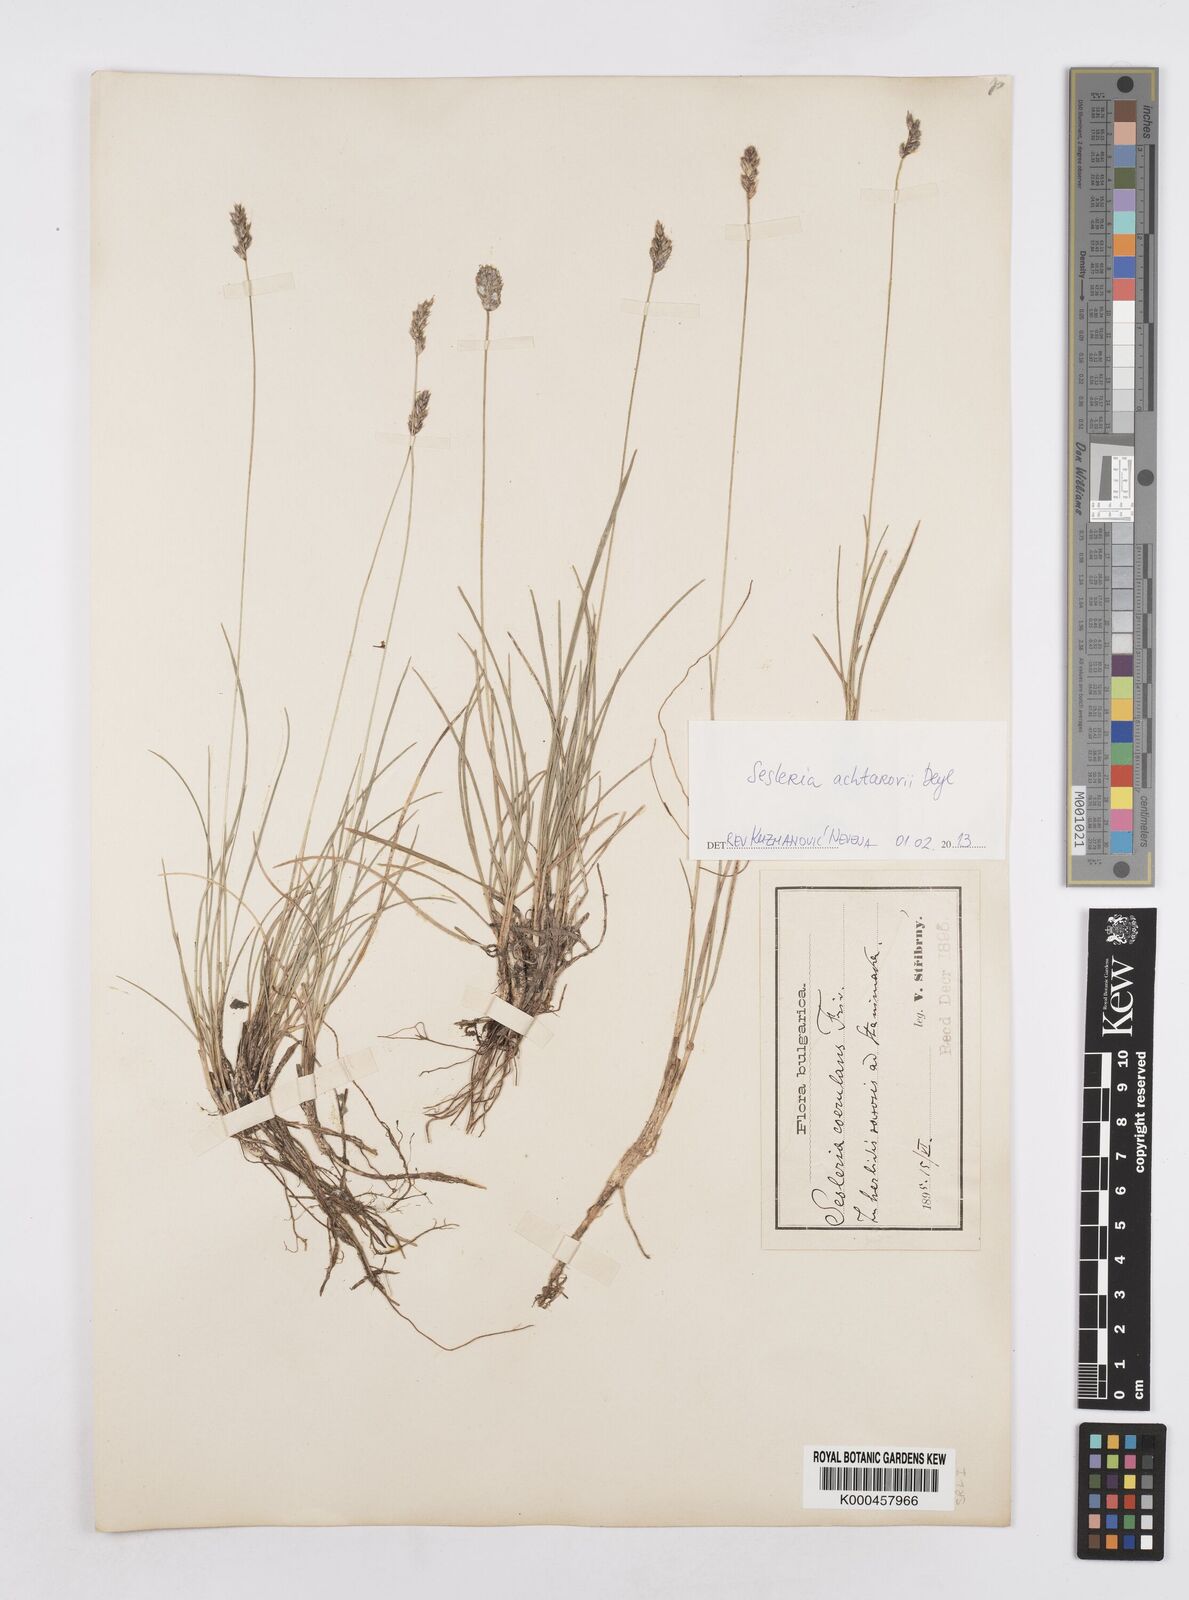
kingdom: Plantae
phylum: Tracheophyta
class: Liliopsida
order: Poales
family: Poaceae
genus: Sesleria
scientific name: Sesleria coerulans
